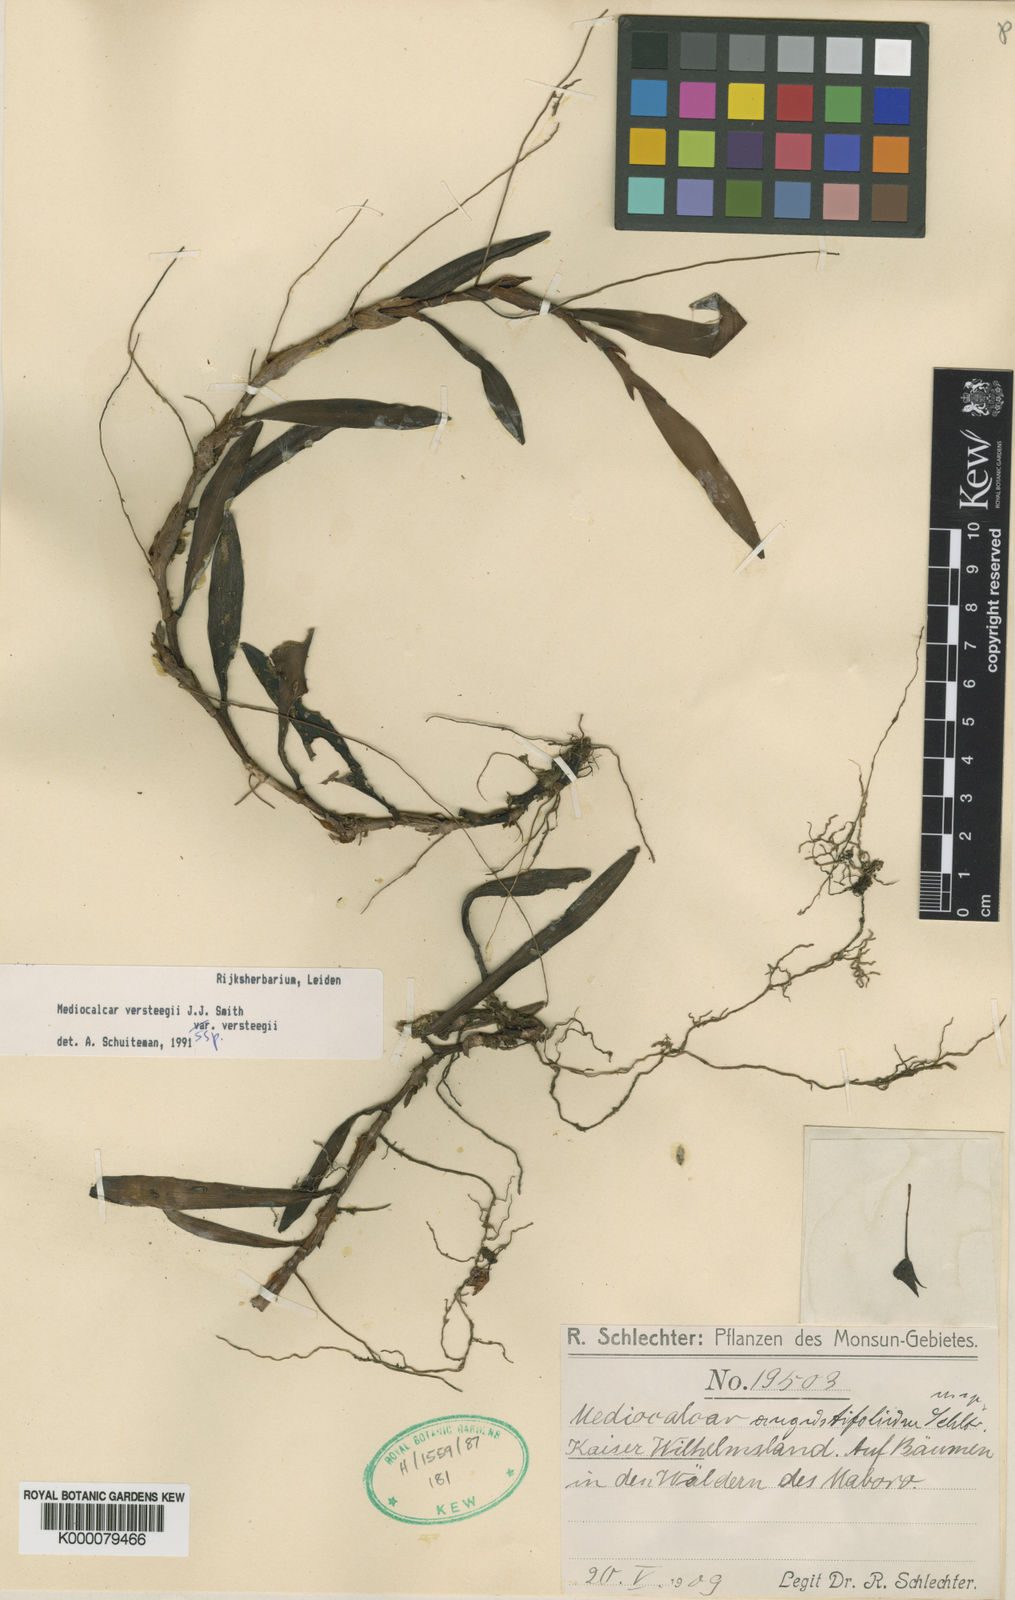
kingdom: Plantae
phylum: Tracheophyta
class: Liliopsida
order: Asparagales
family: Orchidaceae
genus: Mediocalcar
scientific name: Mediocalcar
